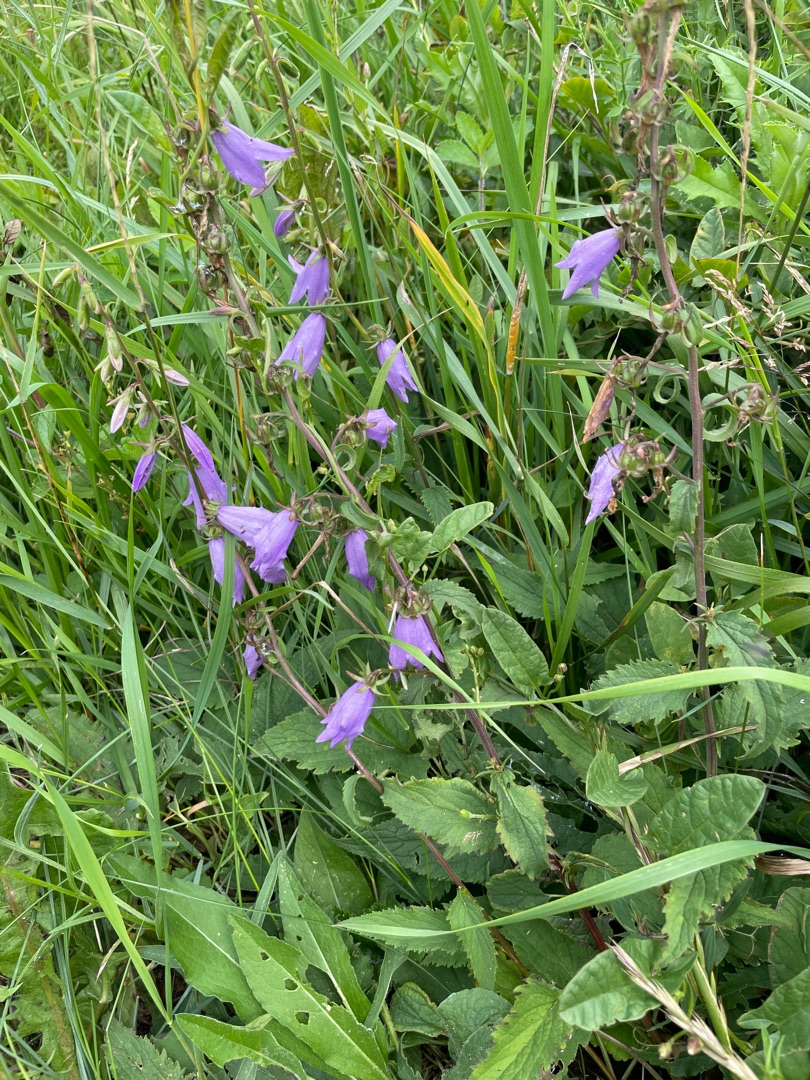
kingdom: Plantae
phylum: Tracheophyta
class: Magnoliopsida
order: Asterales
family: Campanulaceae
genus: Campanula
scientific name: Campanula rapunculoides
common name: Ensidig klokke
